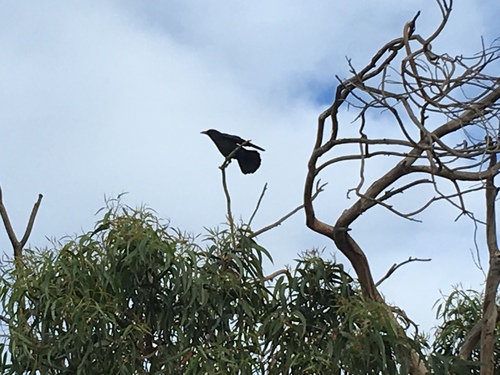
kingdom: Animalia
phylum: Chordata
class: Aves
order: Passeriformes
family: Corvidae
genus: Corvus
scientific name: Corvus corone
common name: Carrion crow
